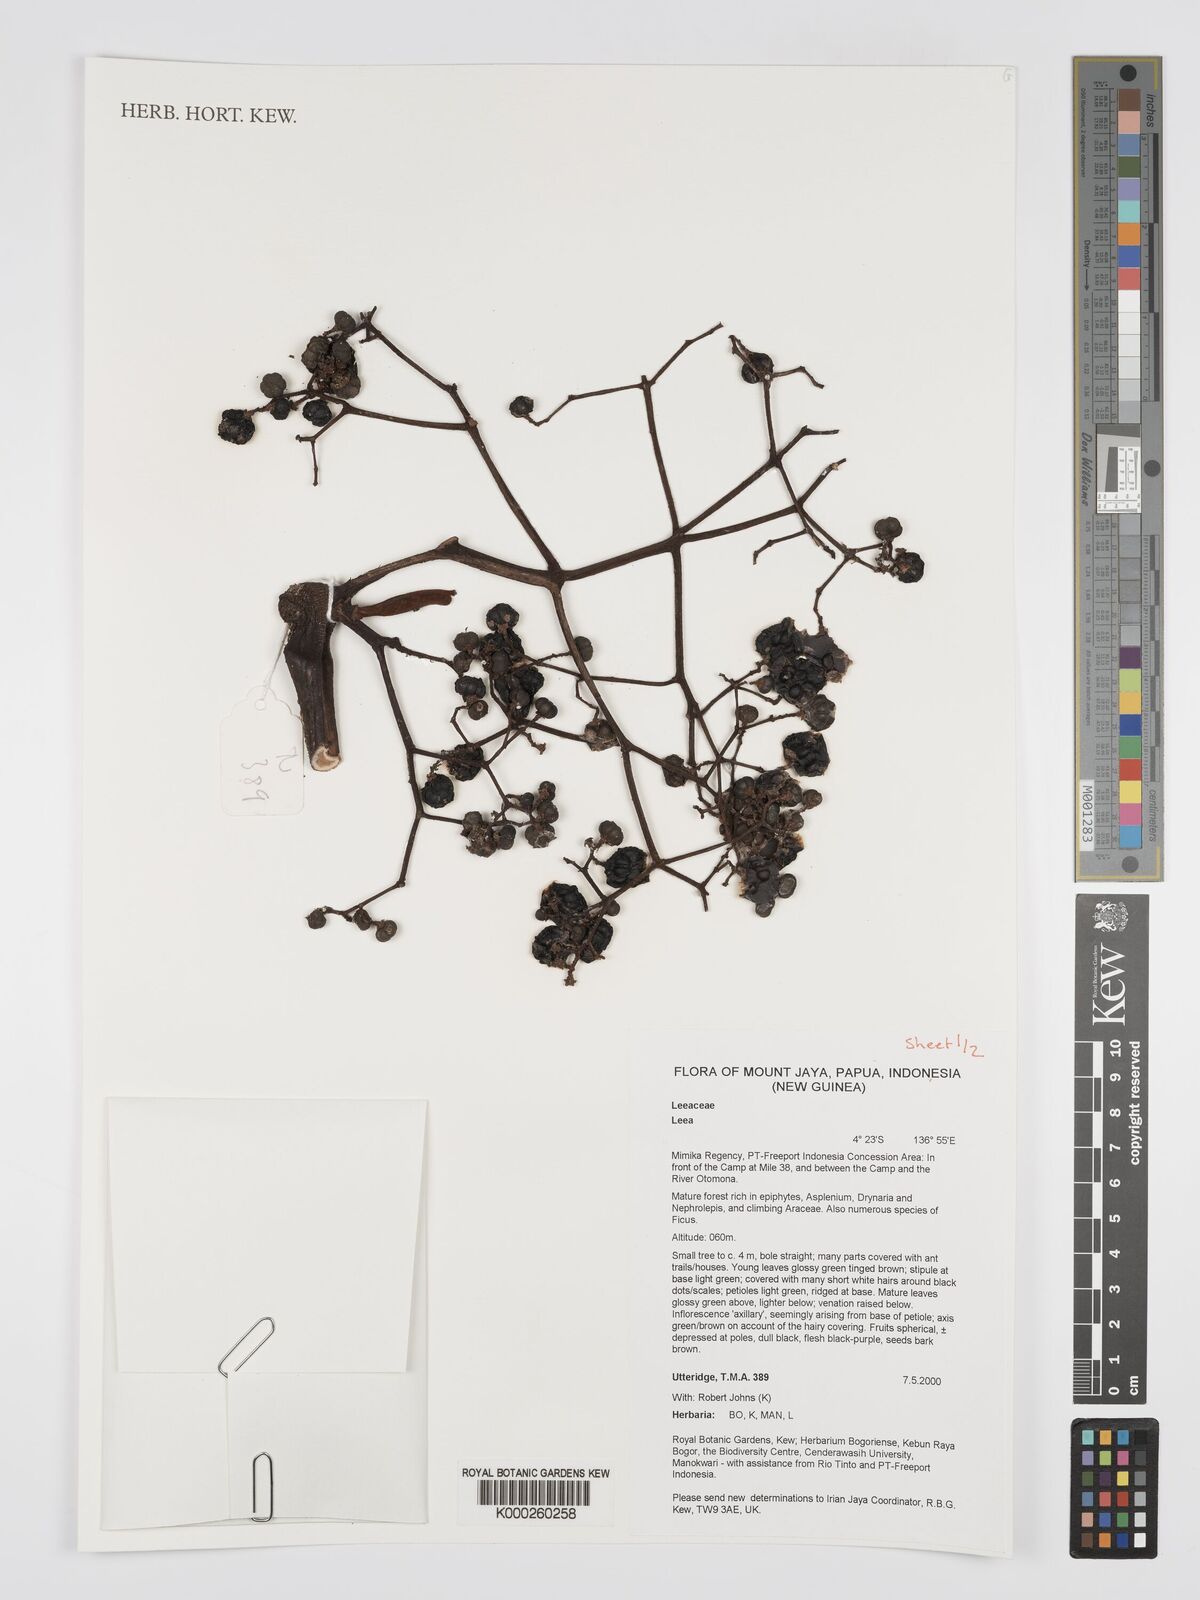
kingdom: Plantae
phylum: Tracheophyta
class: Magnoliopsida
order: Vitales
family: Vitaceae
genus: Leea
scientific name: Leea
